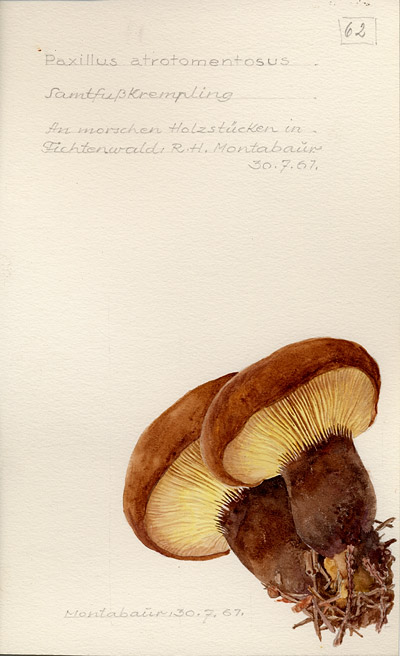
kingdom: Fungi
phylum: Basidiomycota
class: Agaricomycetes
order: Boletales
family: Tapinellaceae
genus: Tapinella
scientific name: Tapinella atrotomentosa
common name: Velvet rollrim
